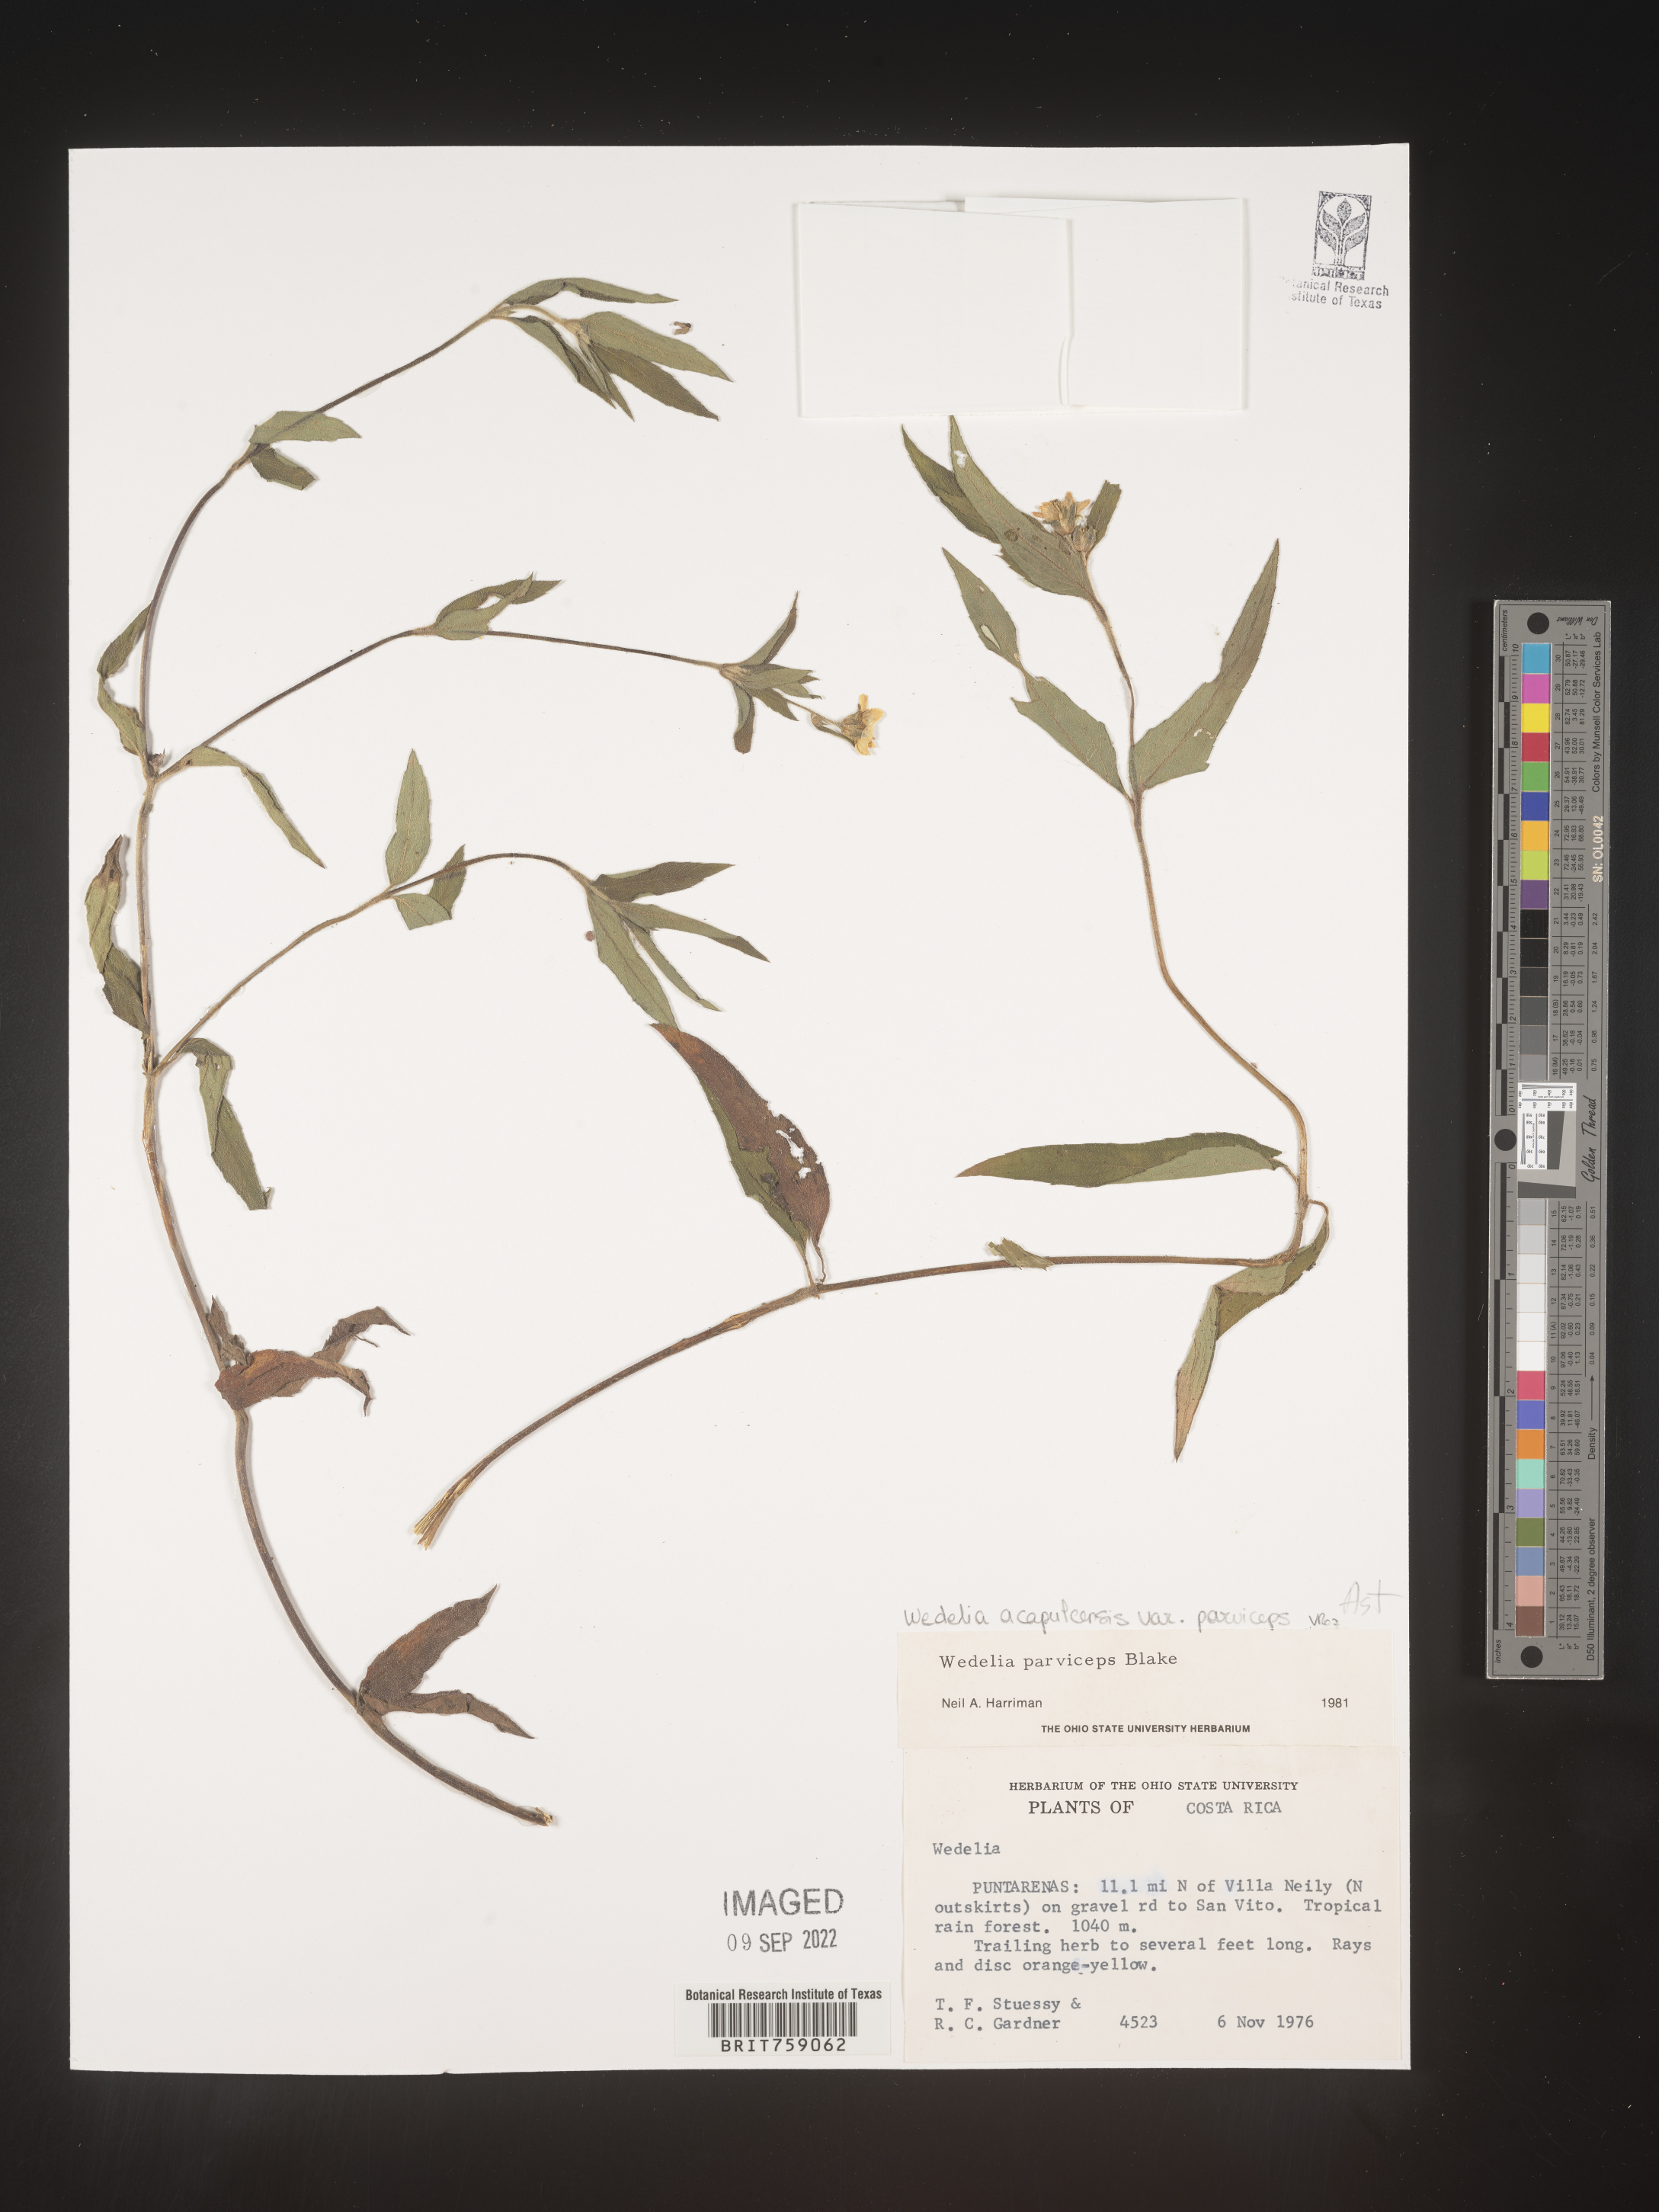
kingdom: Plantae
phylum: Tracheophyta
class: Magnoliopsida
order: Asterales
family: Asteraceae
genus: Wedelia
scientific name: Wedelia
